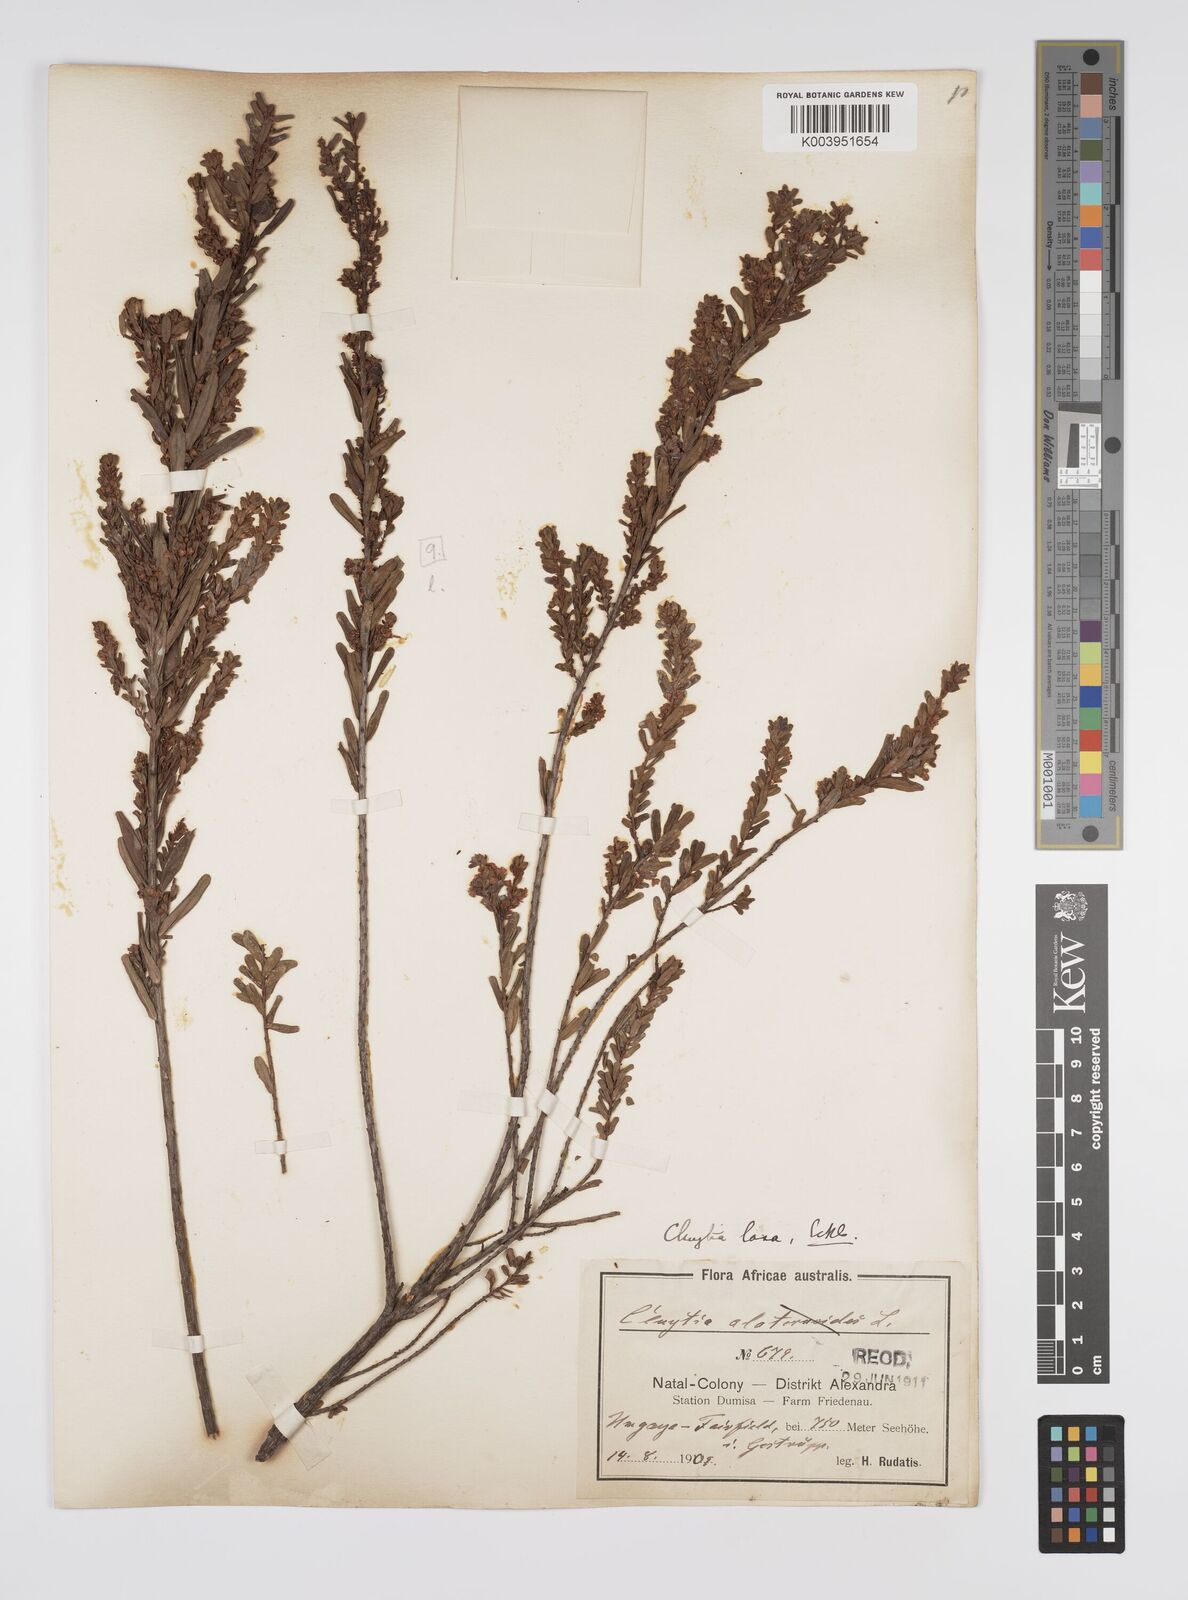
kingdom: Plantae
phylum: Tracheophyta
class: Magnoliopsida
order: Malpighiales
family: Peraceae
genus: Clutia
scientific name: Clutia laxa
